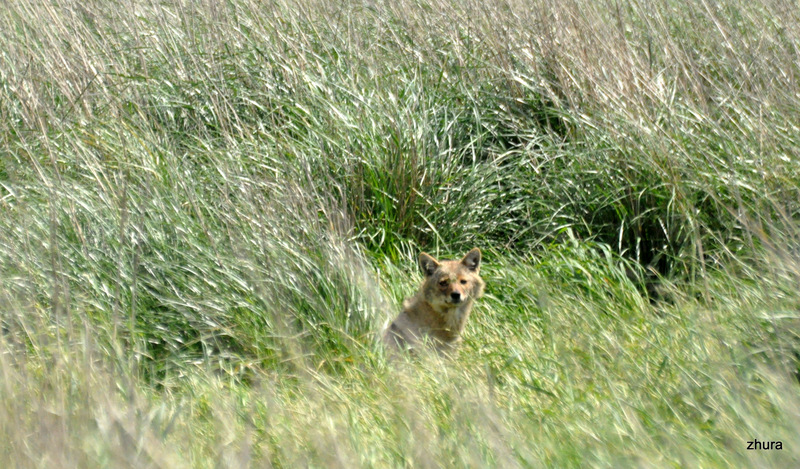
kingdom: Animalia
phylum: Chordata
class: Mammalia
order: Carnivora
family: Canidae
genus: Canis
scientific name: Canis aureus
